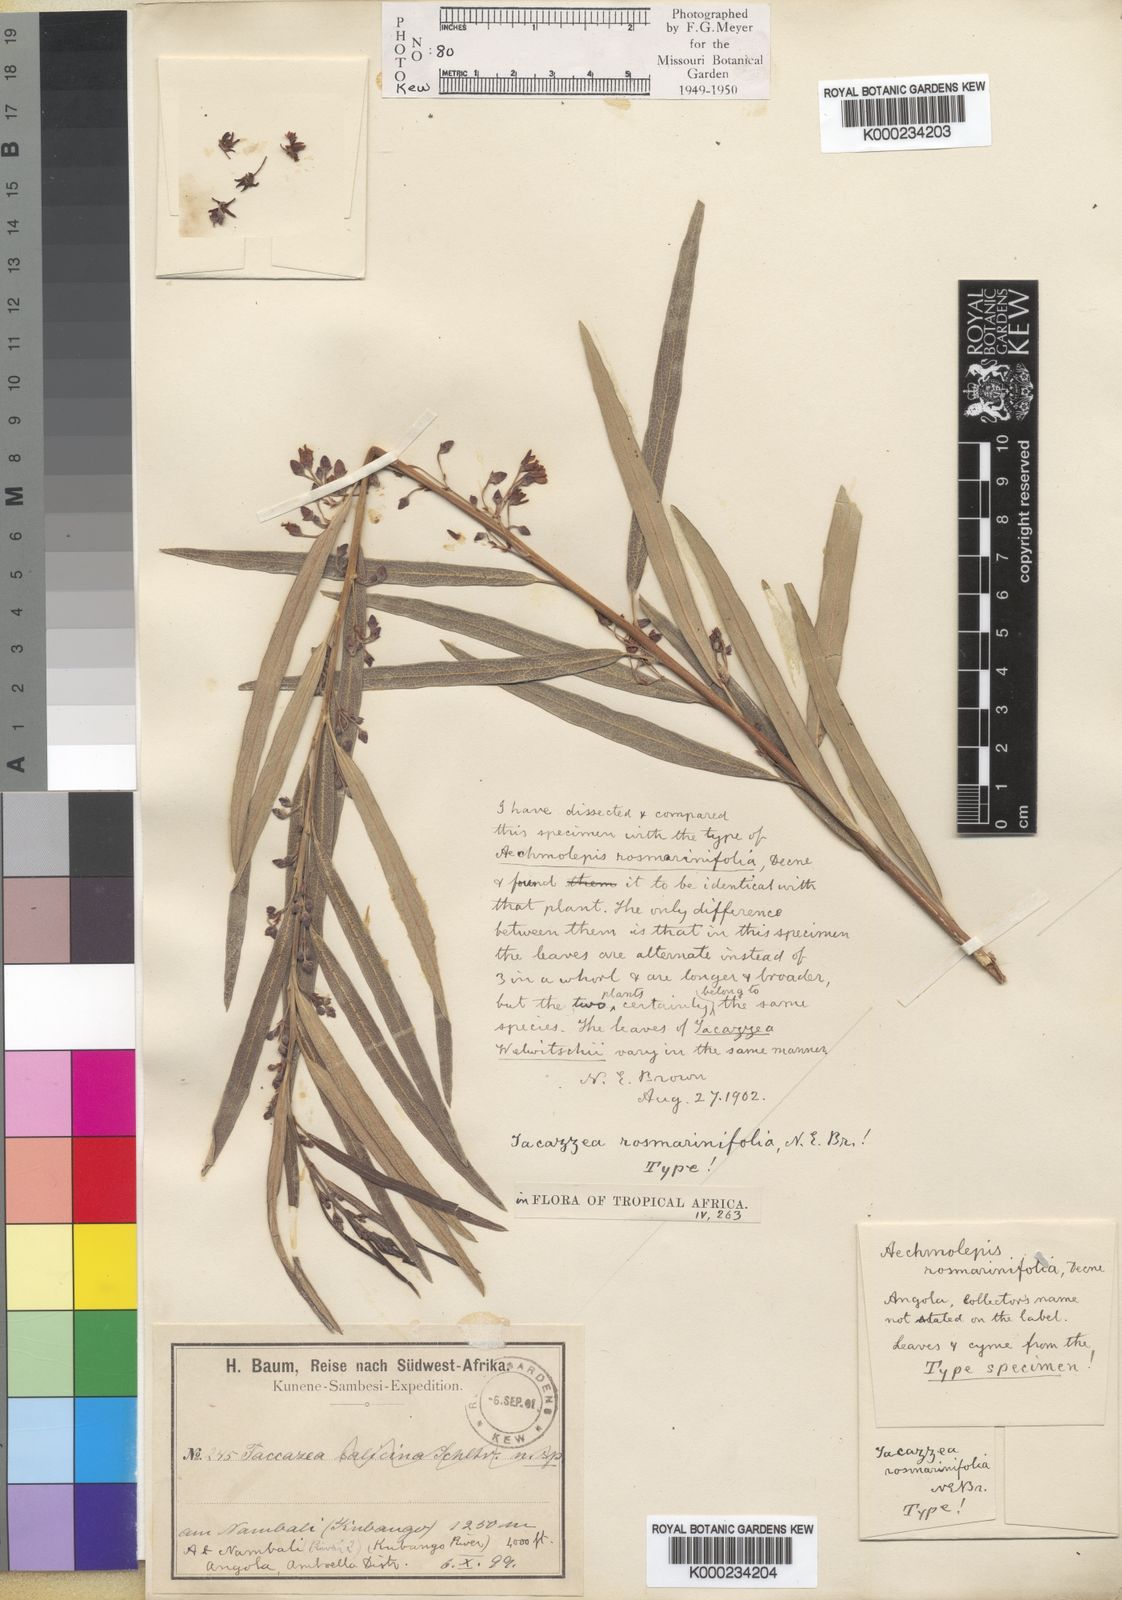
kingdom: Plantae
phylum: Tracheophyta
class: Magnoliopsida
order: Gentianales
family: Apocynaceae
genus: Tacazzea
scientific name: Tacazzea rosmarinifolia
